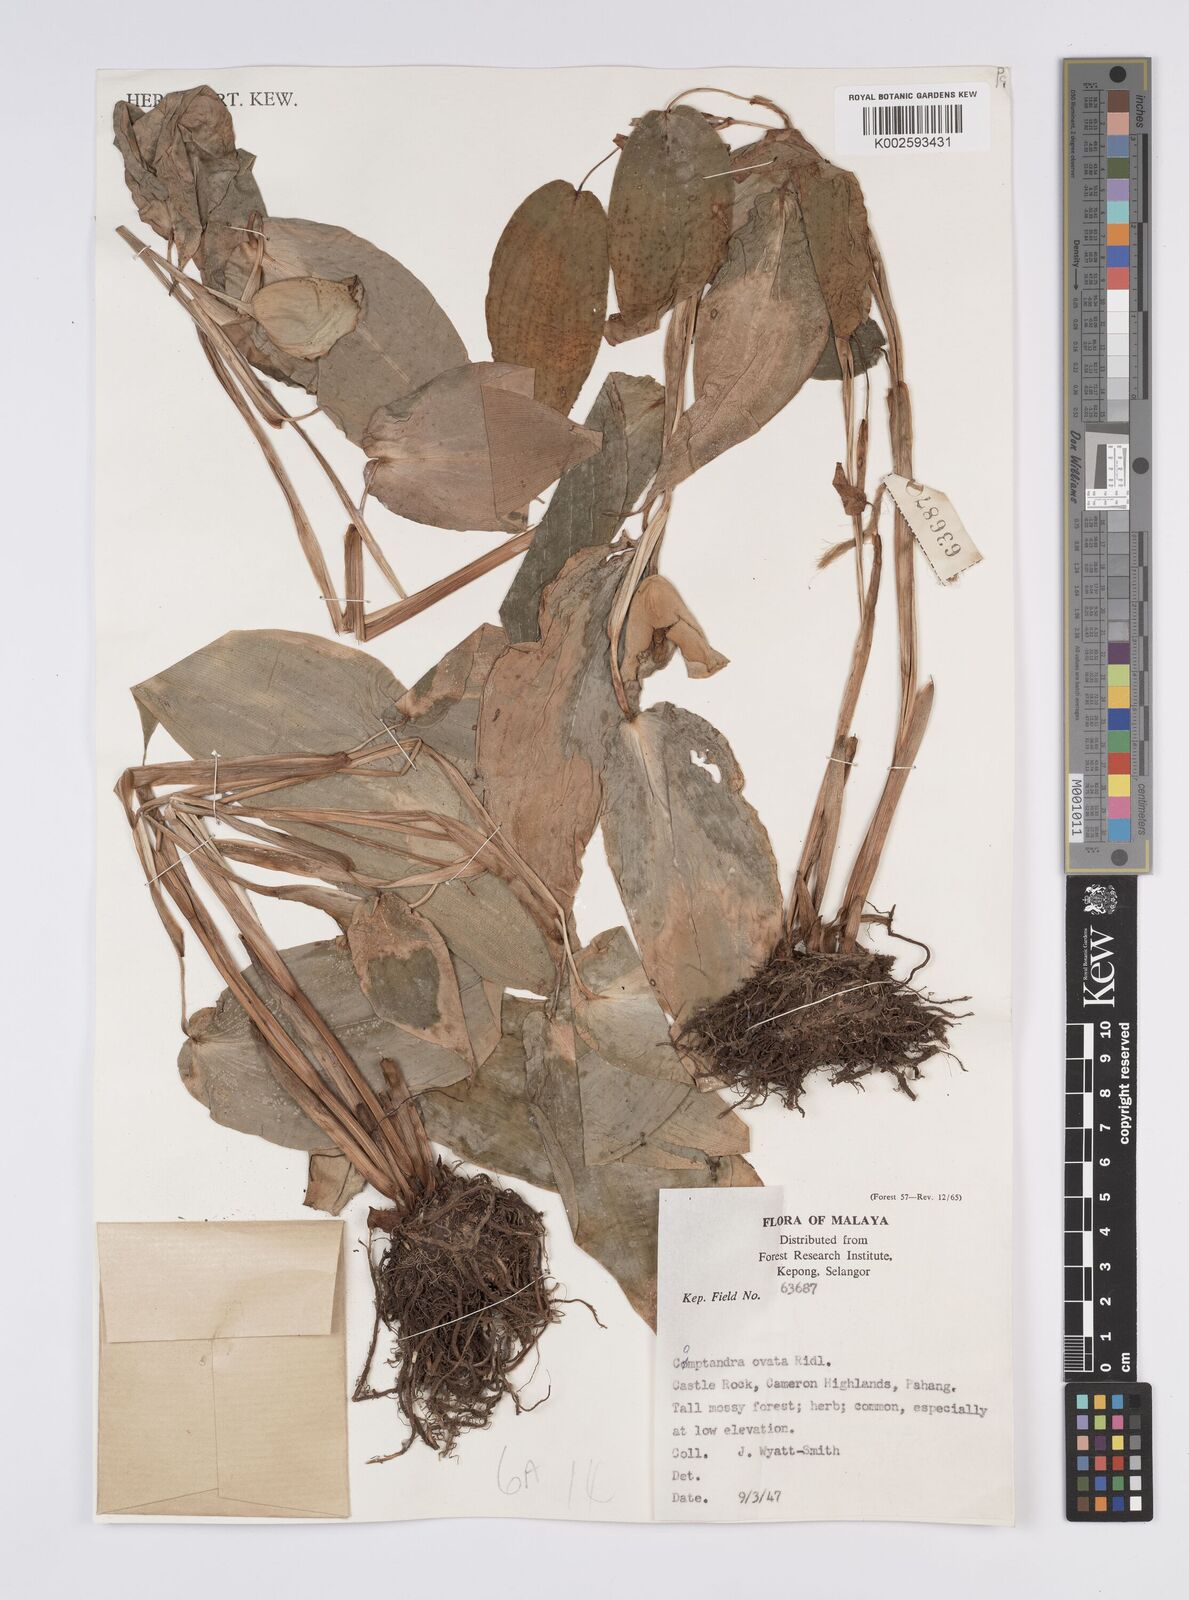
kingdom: Plantae
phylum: Tracheophyta
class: Liliopsida
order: Zingiberales
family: Zingiberaceae
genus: Camptandra
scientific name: Camptandra ovata
